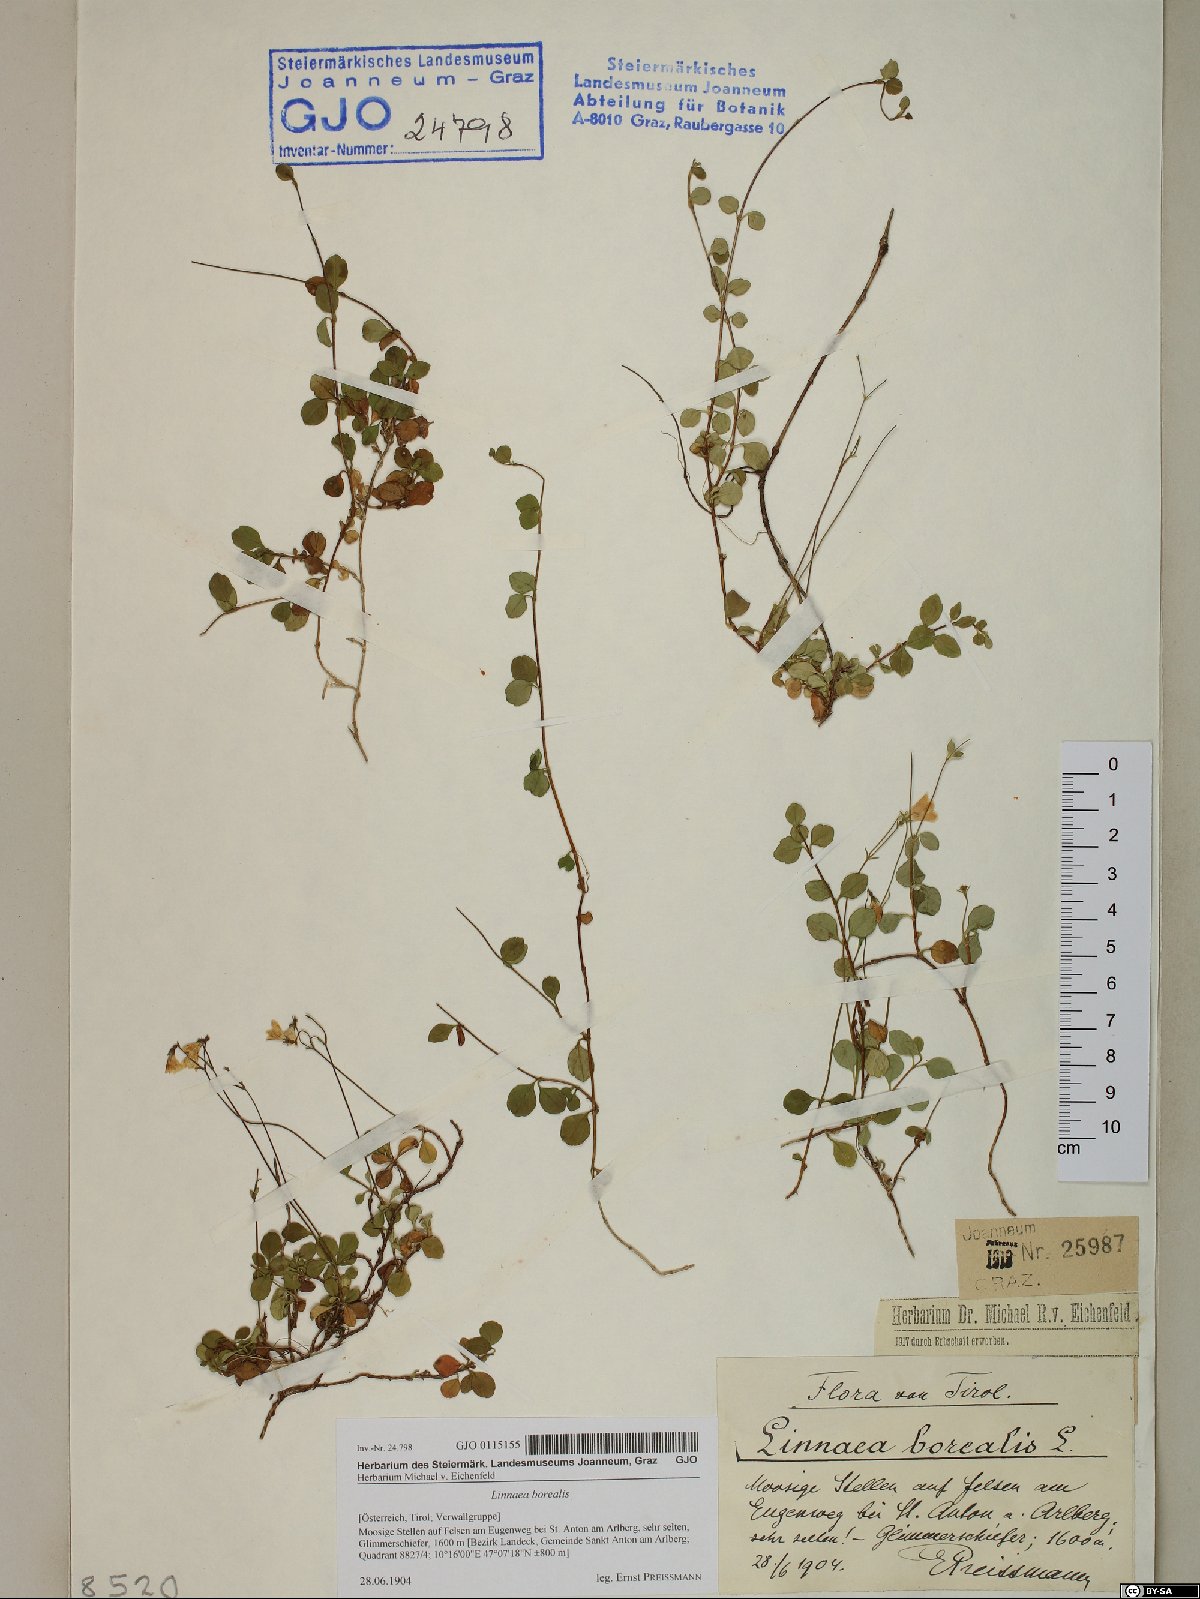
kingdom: Plantae
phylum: Tracheophyta
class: Magnoliopsida
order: Dipsacales
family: Caprifoliaceae
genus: Linnaea
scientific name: Linnaea borealis
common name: Twinflower
